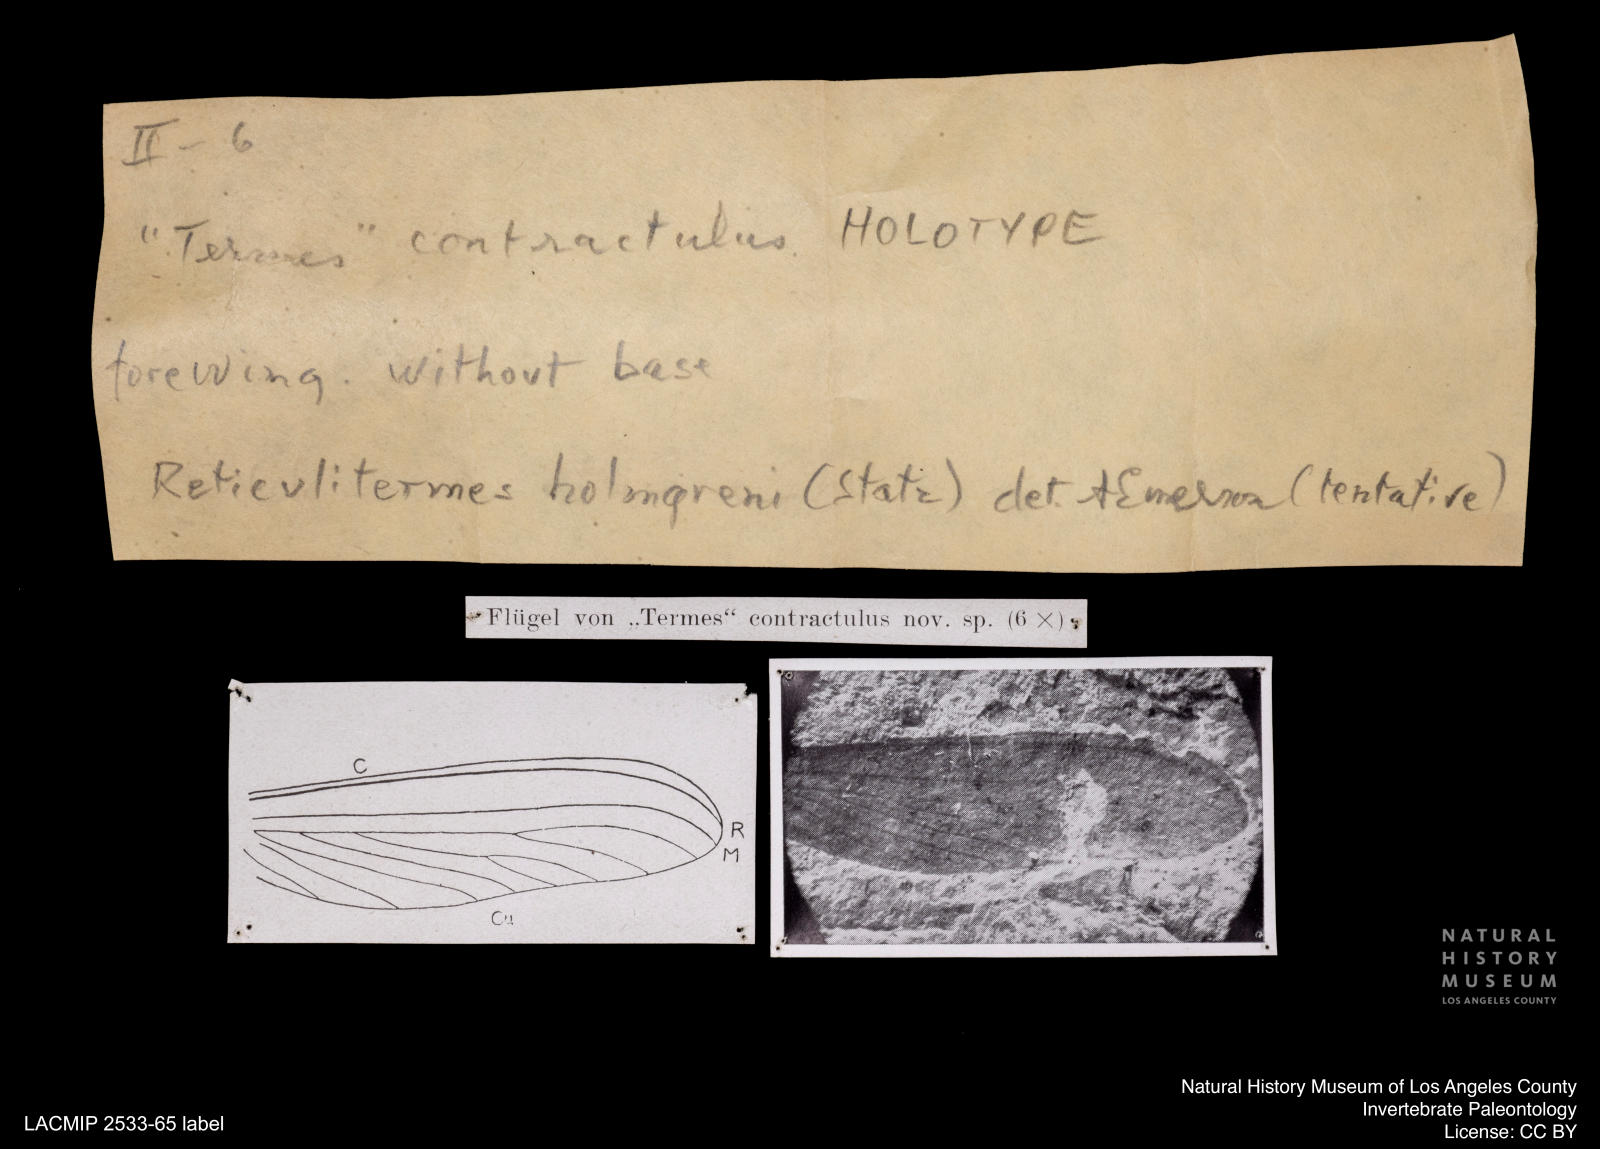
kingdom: Animalia
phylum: Arthropoda
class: Insecta
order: Blattodea
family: Rhinotermitidae
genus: Reticulitermes
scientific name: Reticulitermes holmgreni
